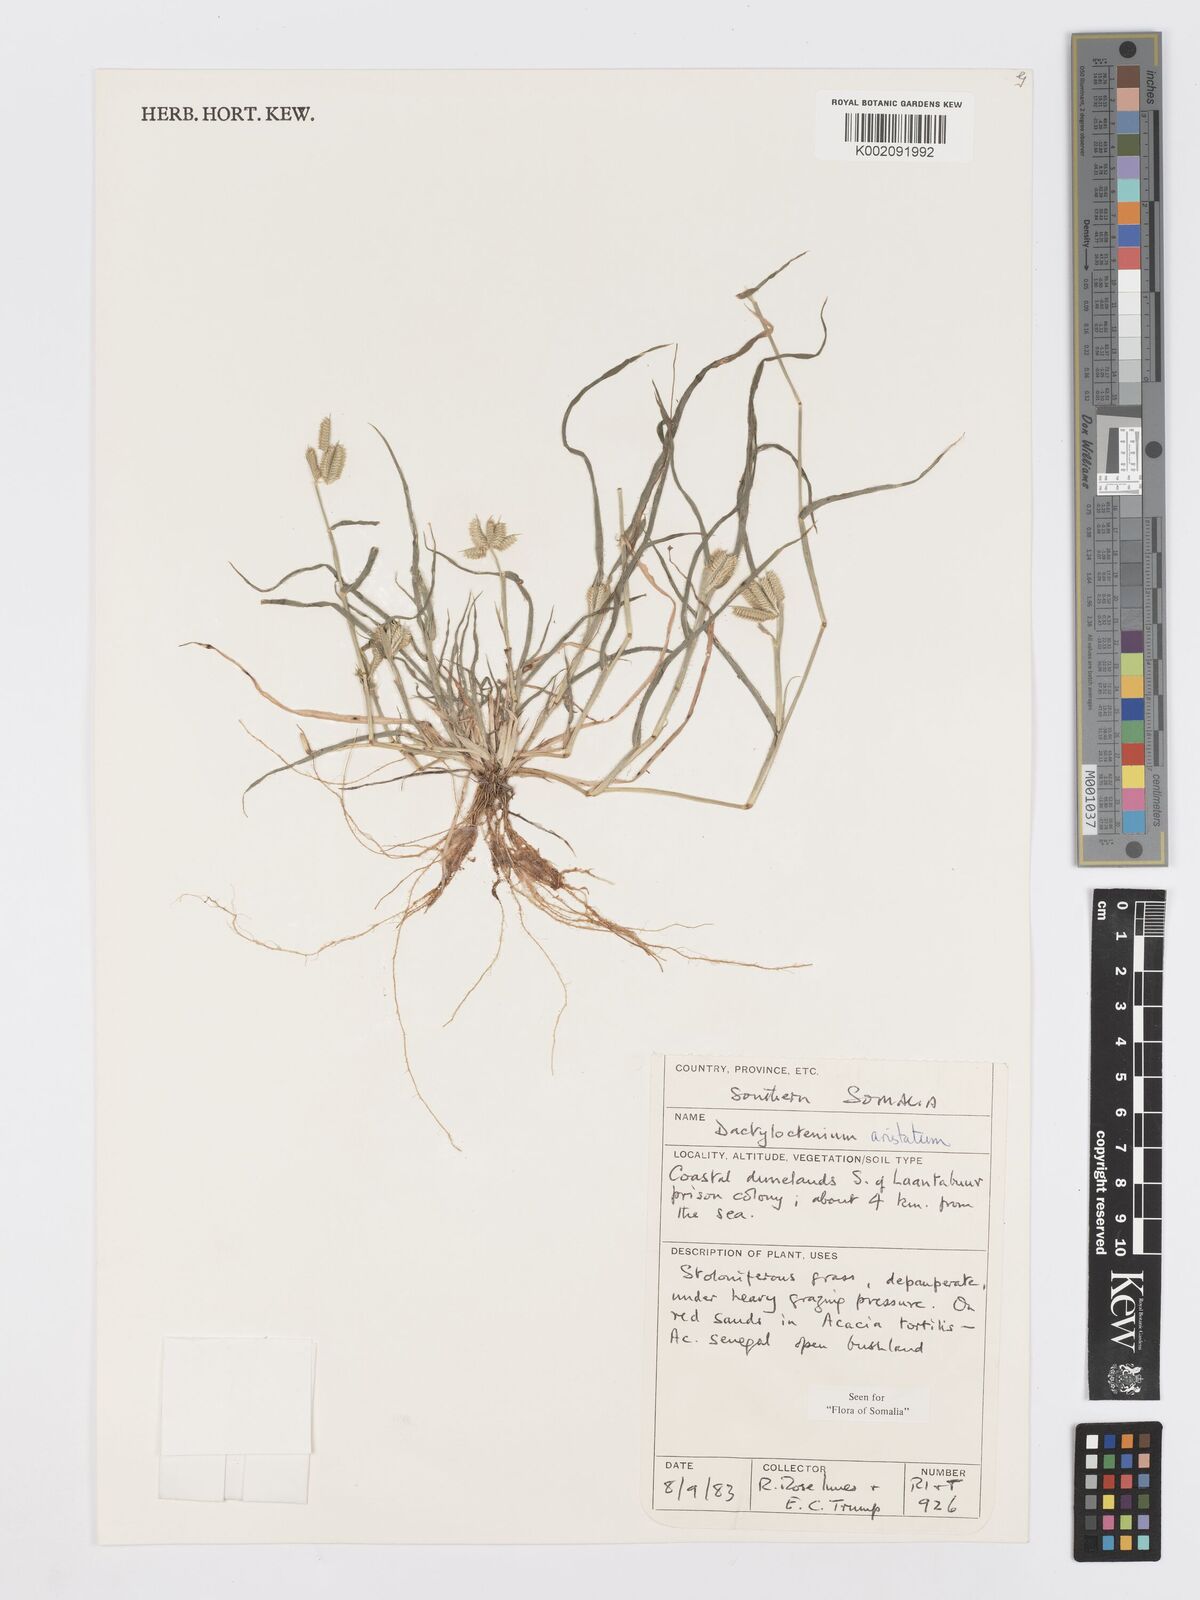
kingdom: Plantae
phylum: Tracheophyta
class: Liliopsida
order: Poales
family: Poaceae
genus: Dactyloctenium
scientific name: Dactyloctenium aristatum
